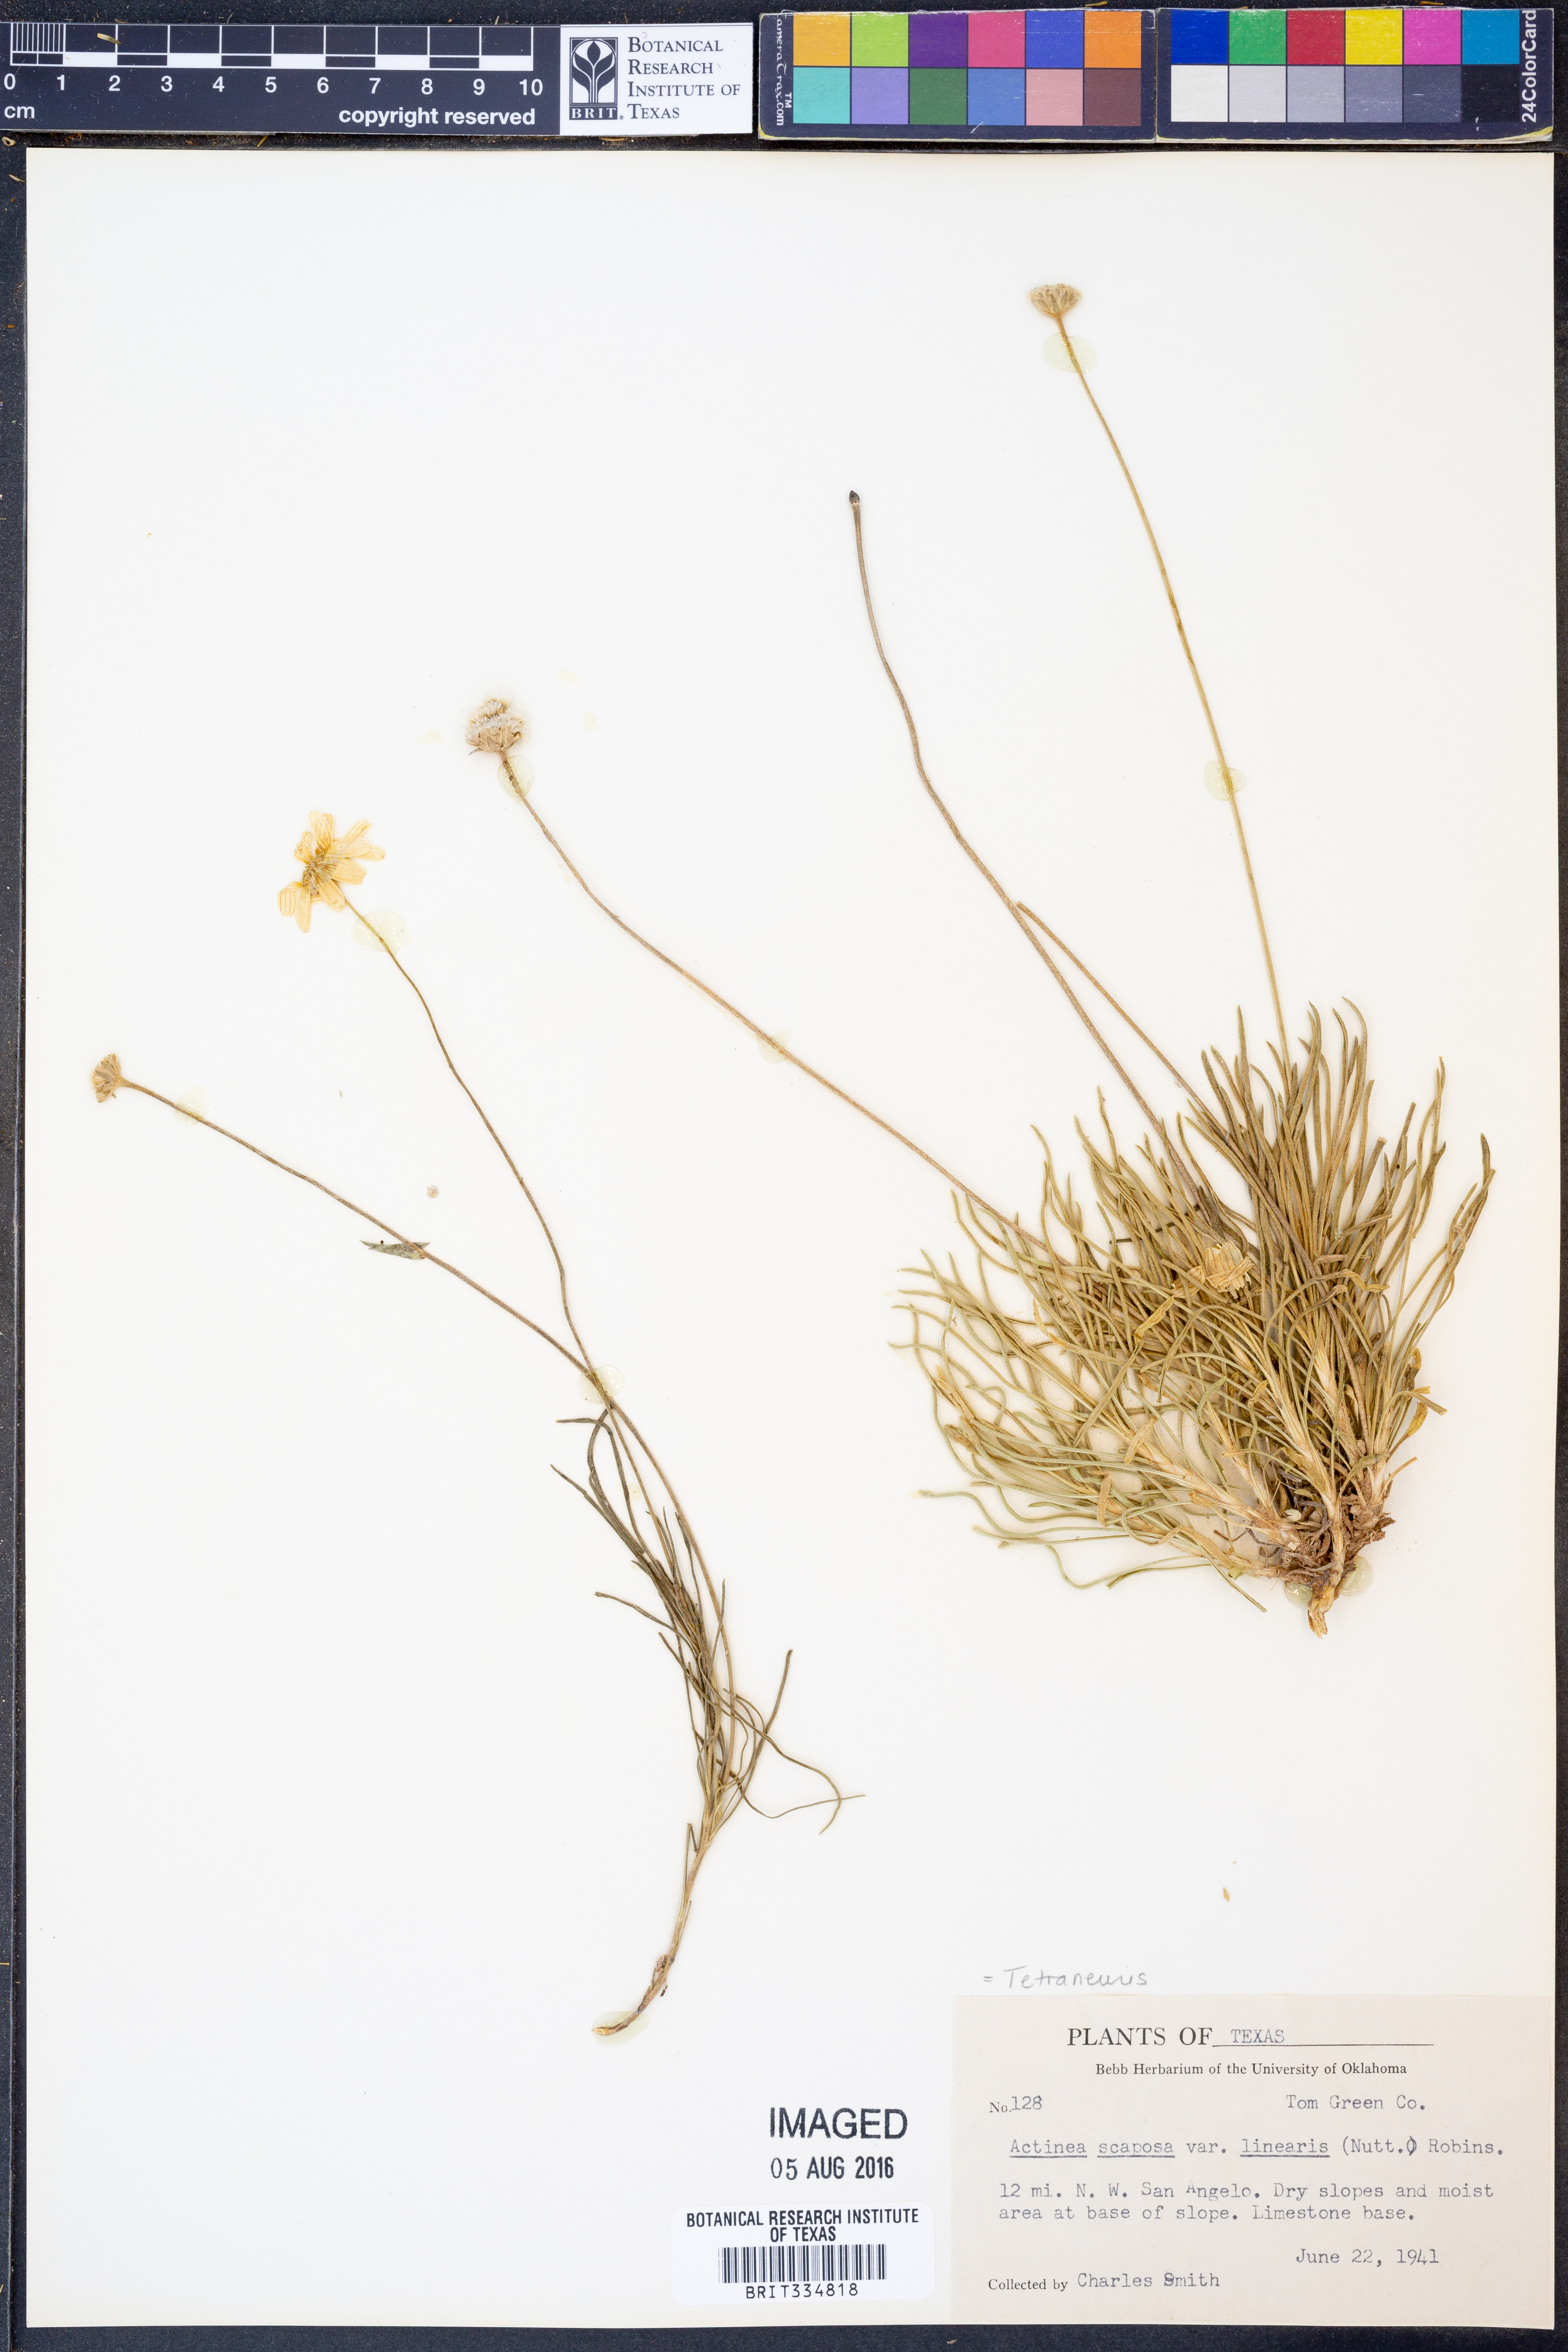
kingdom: Plantae
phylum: Tracheophyta
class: Magnoliopsida
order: Asterales
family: Asteraceae
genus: Tetraneuris
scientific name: Tetraneuris scaposa
